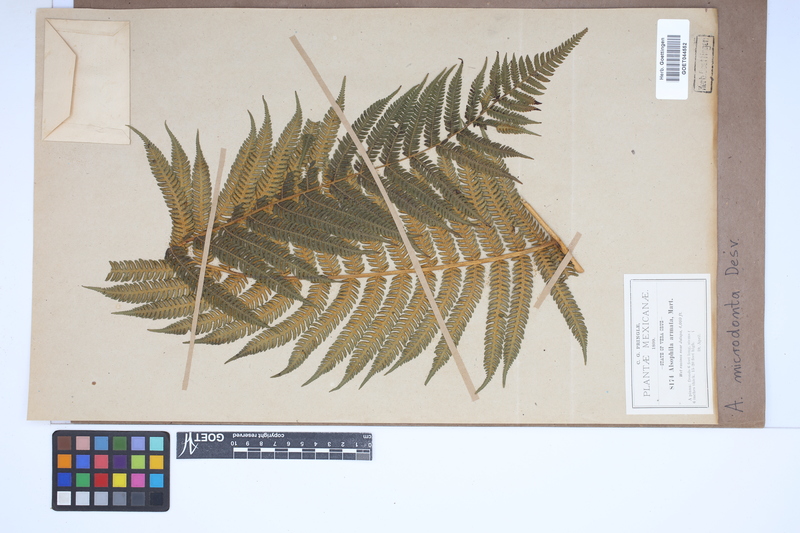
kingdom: Plantae
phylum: Tracheophyta
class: Polypodiopsida
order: Cyatheales
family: Cyatheaceae
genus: Cyathea
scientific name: Cyathea microdonta
